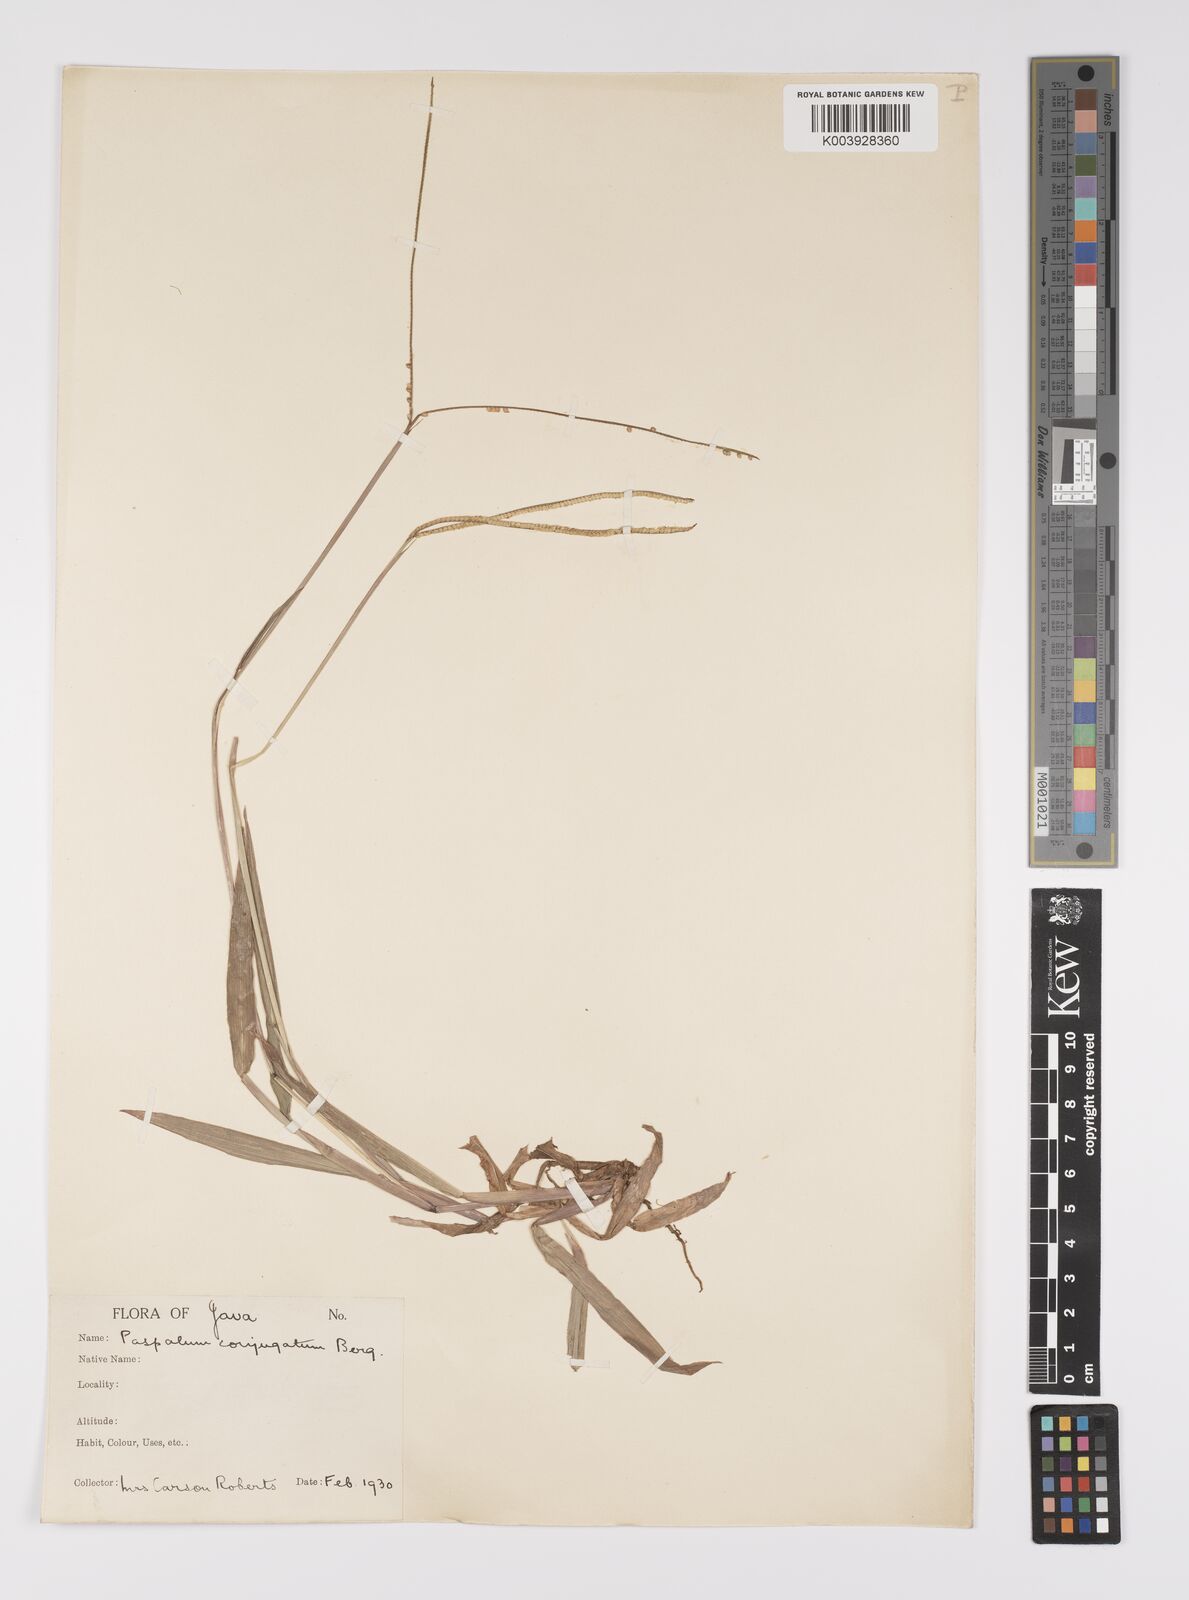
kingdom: Plantae
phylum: Tracheophyta
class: Liliopsida
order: Poales
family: Poaceae
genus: Paspalum
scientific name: Paspalum conjugatum
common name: Hilograss
